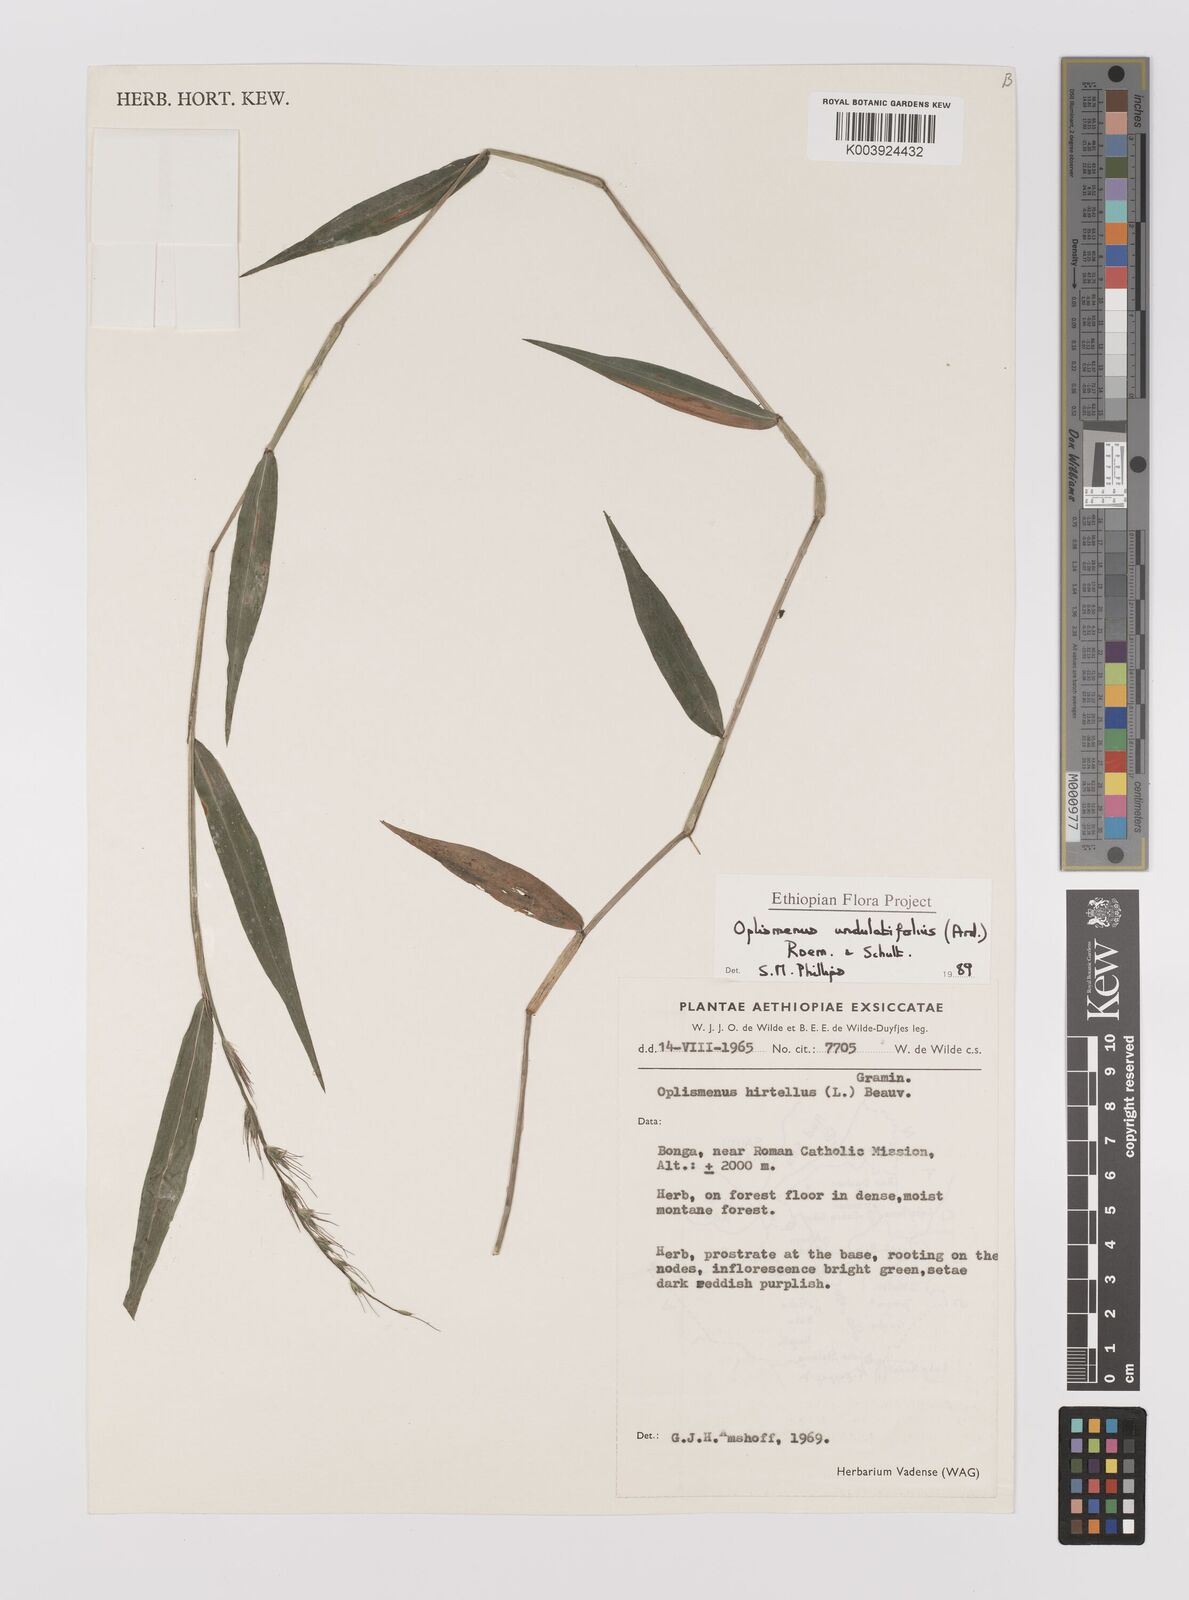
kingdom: Plantae
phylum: Tracheophyta
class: Liliopsida
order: Poales
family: Poaceae
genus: Oplismenus
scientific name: Oplismenus undulatifolius
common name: Wavyleaf basketgrass
